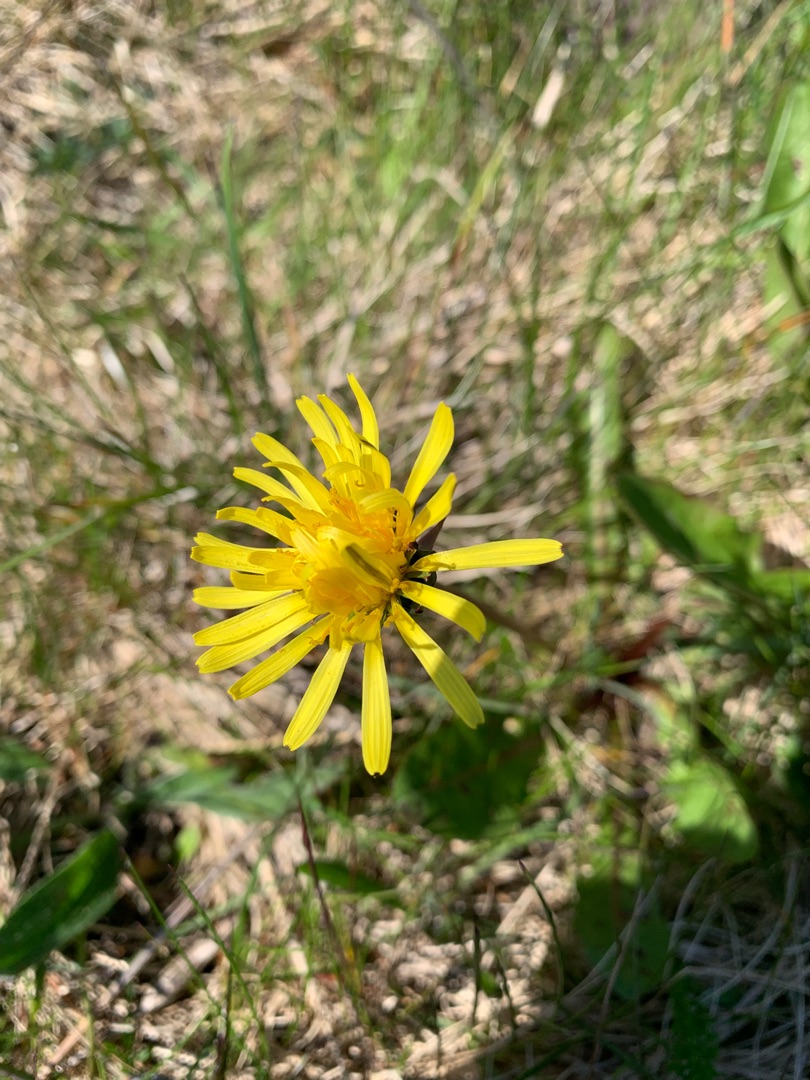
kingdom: Plantae
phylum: Tracheophyta
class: Magnoliopsida
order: Asterales
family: Asteraceae
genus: Taraxacum
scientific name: Taraxacum
